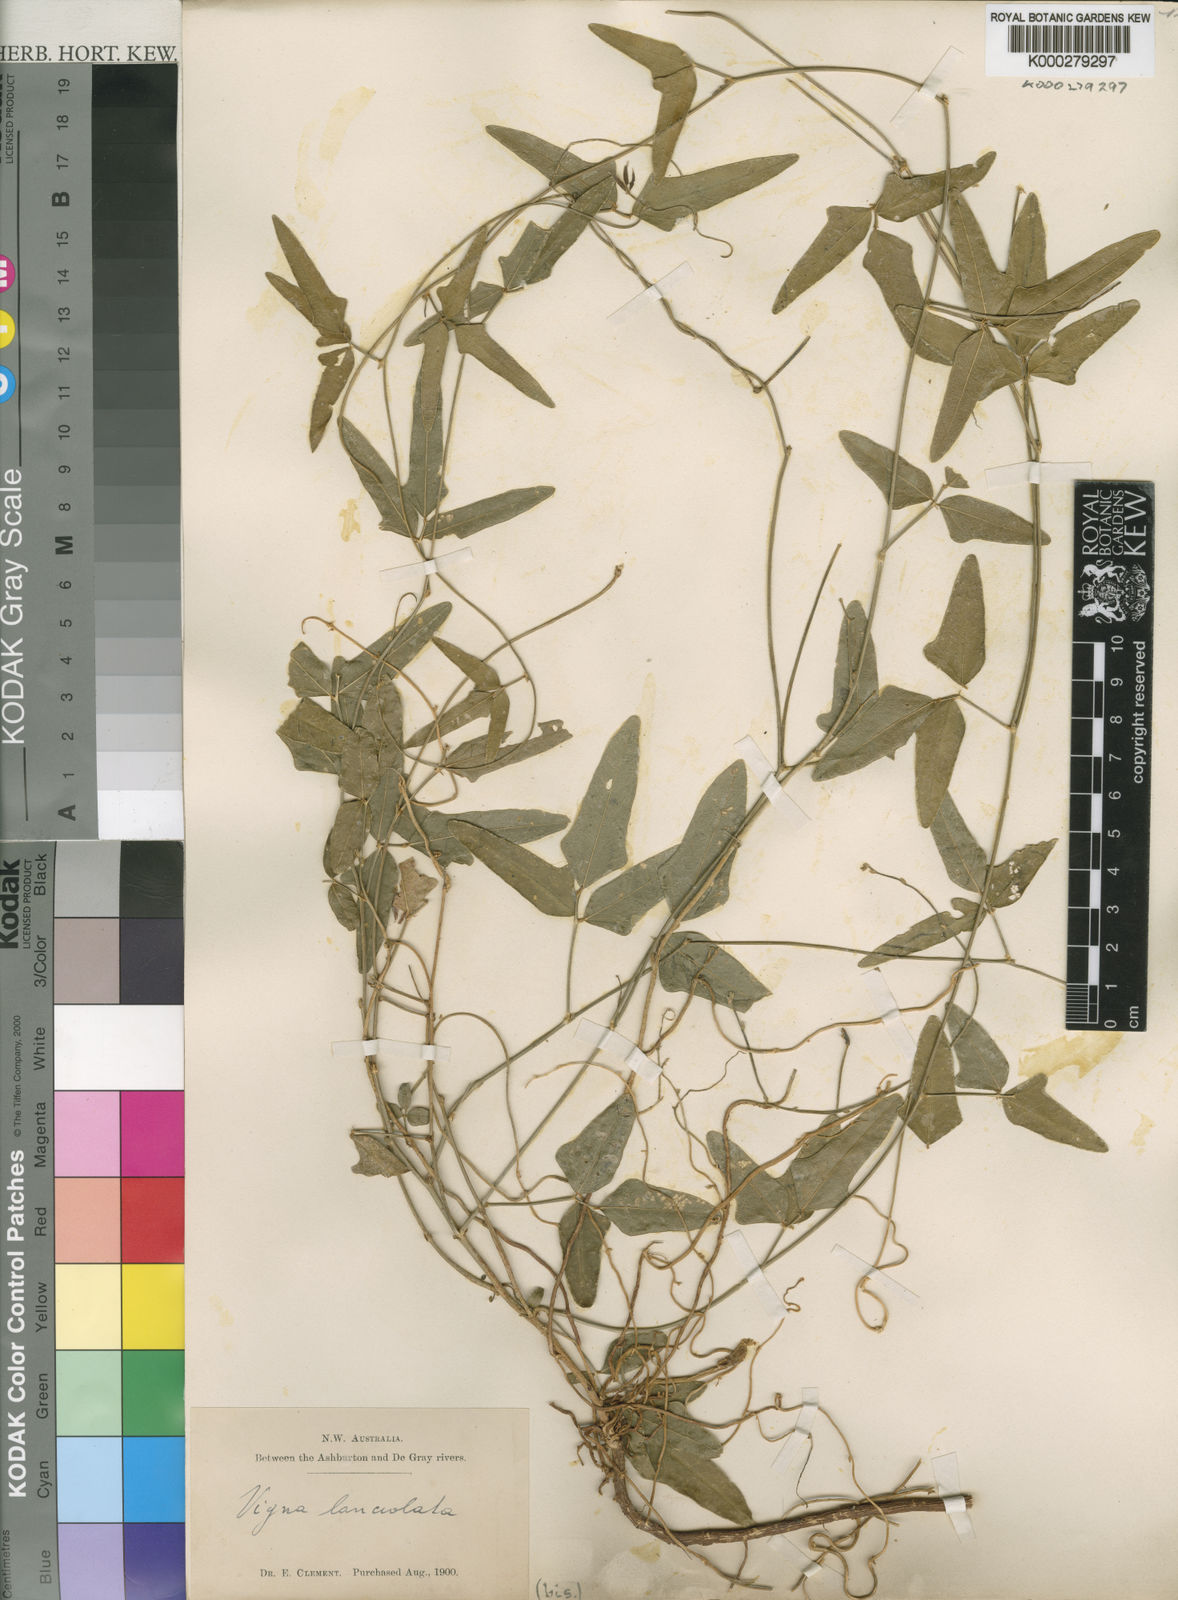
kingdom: Plantae
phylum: Tracheophyta
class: Magnoliopsida
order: Fabales
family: Fabaceae
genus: Vigna
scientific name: Vigna lanceolata
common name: Maloga-bean
